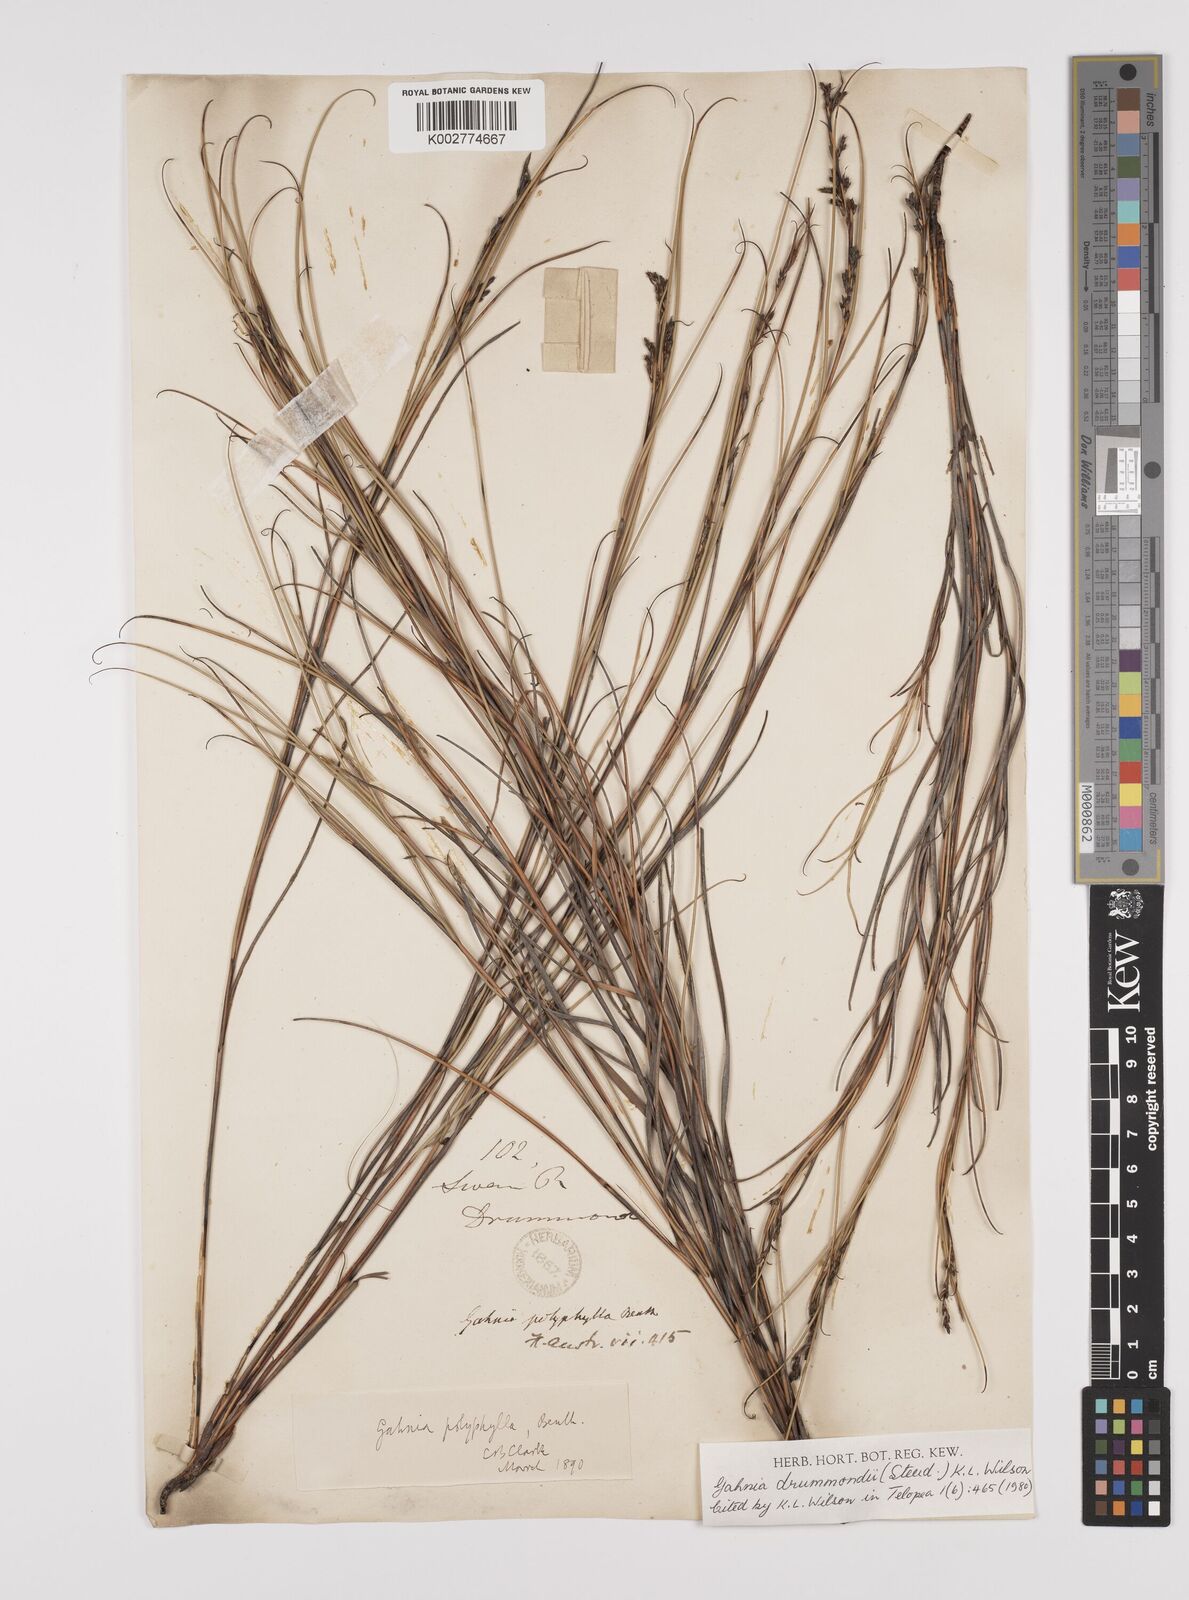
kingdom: Plantae
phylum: Tracheophyta
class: Liliopsida
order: Poales
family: Cyperaceae
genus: Gahnia
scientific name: Gahnia drummondii
